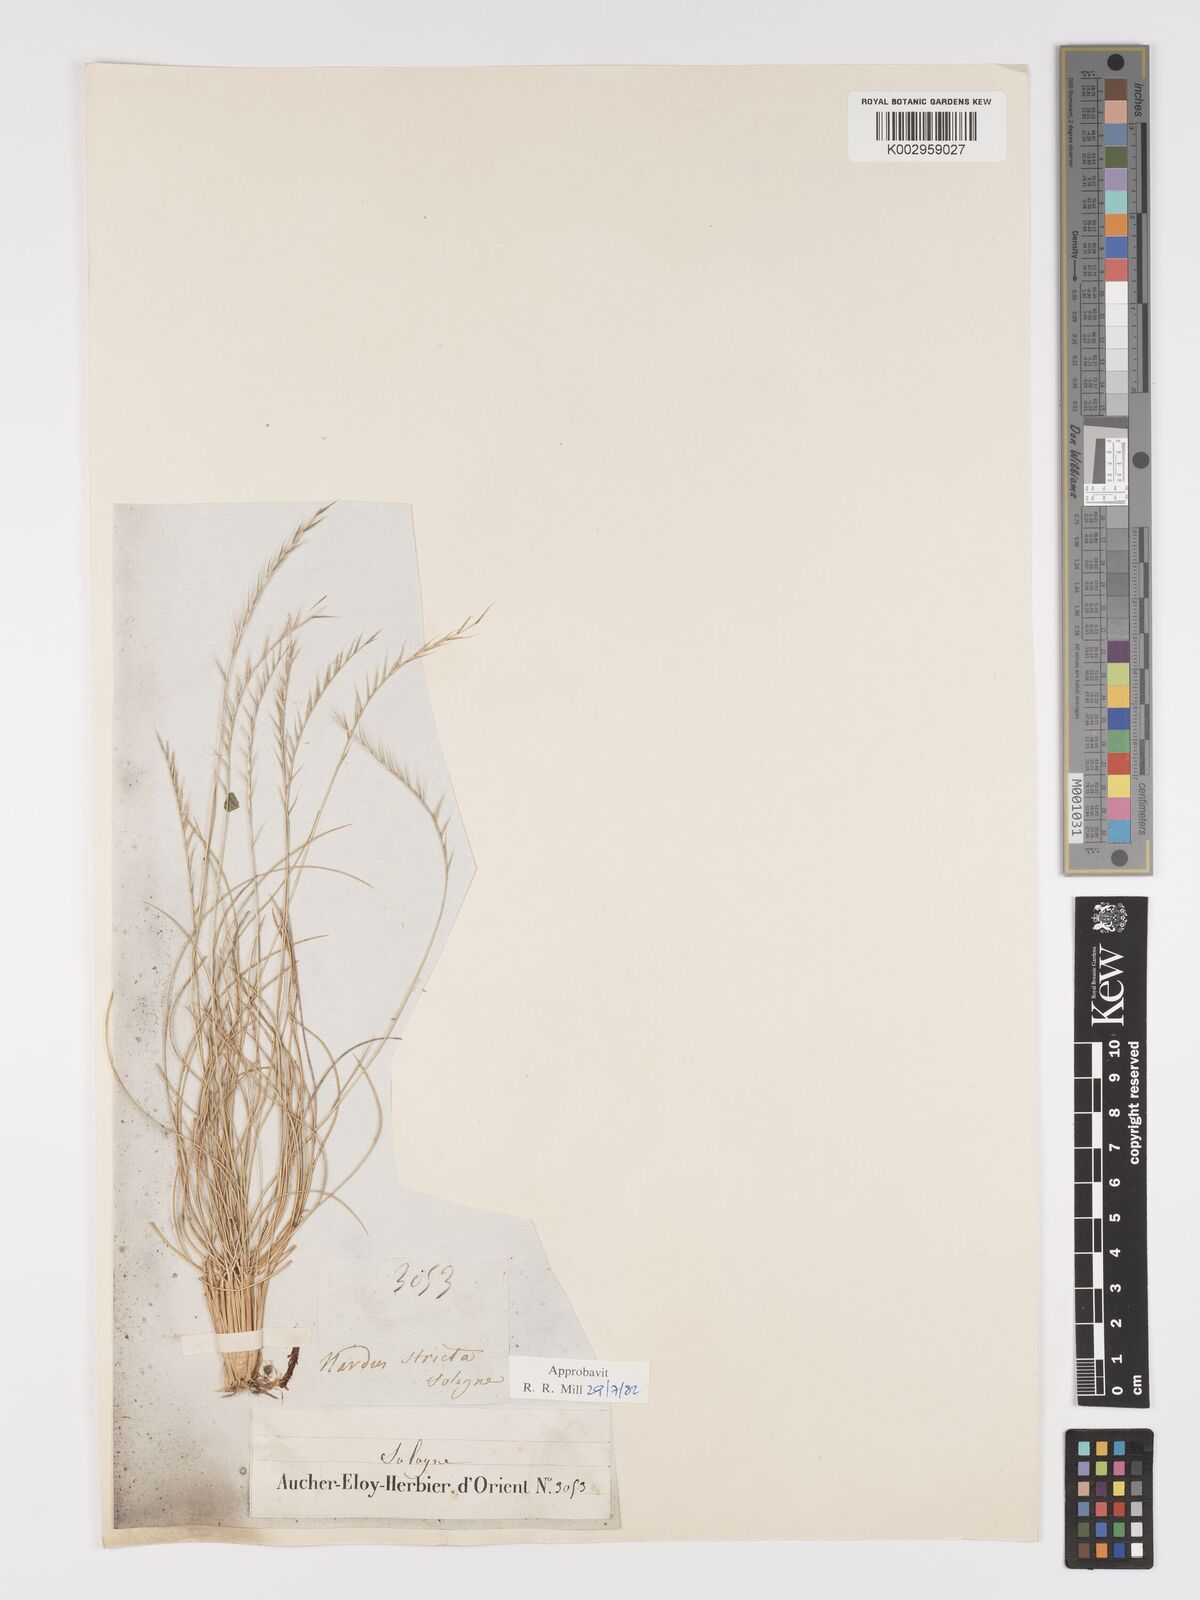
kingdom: Plantae
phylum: Tracheophyta
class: Liliopsida
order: Poales
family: Poaceae
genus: Nardus
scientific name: Nardus stricta
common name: Mat-grass
